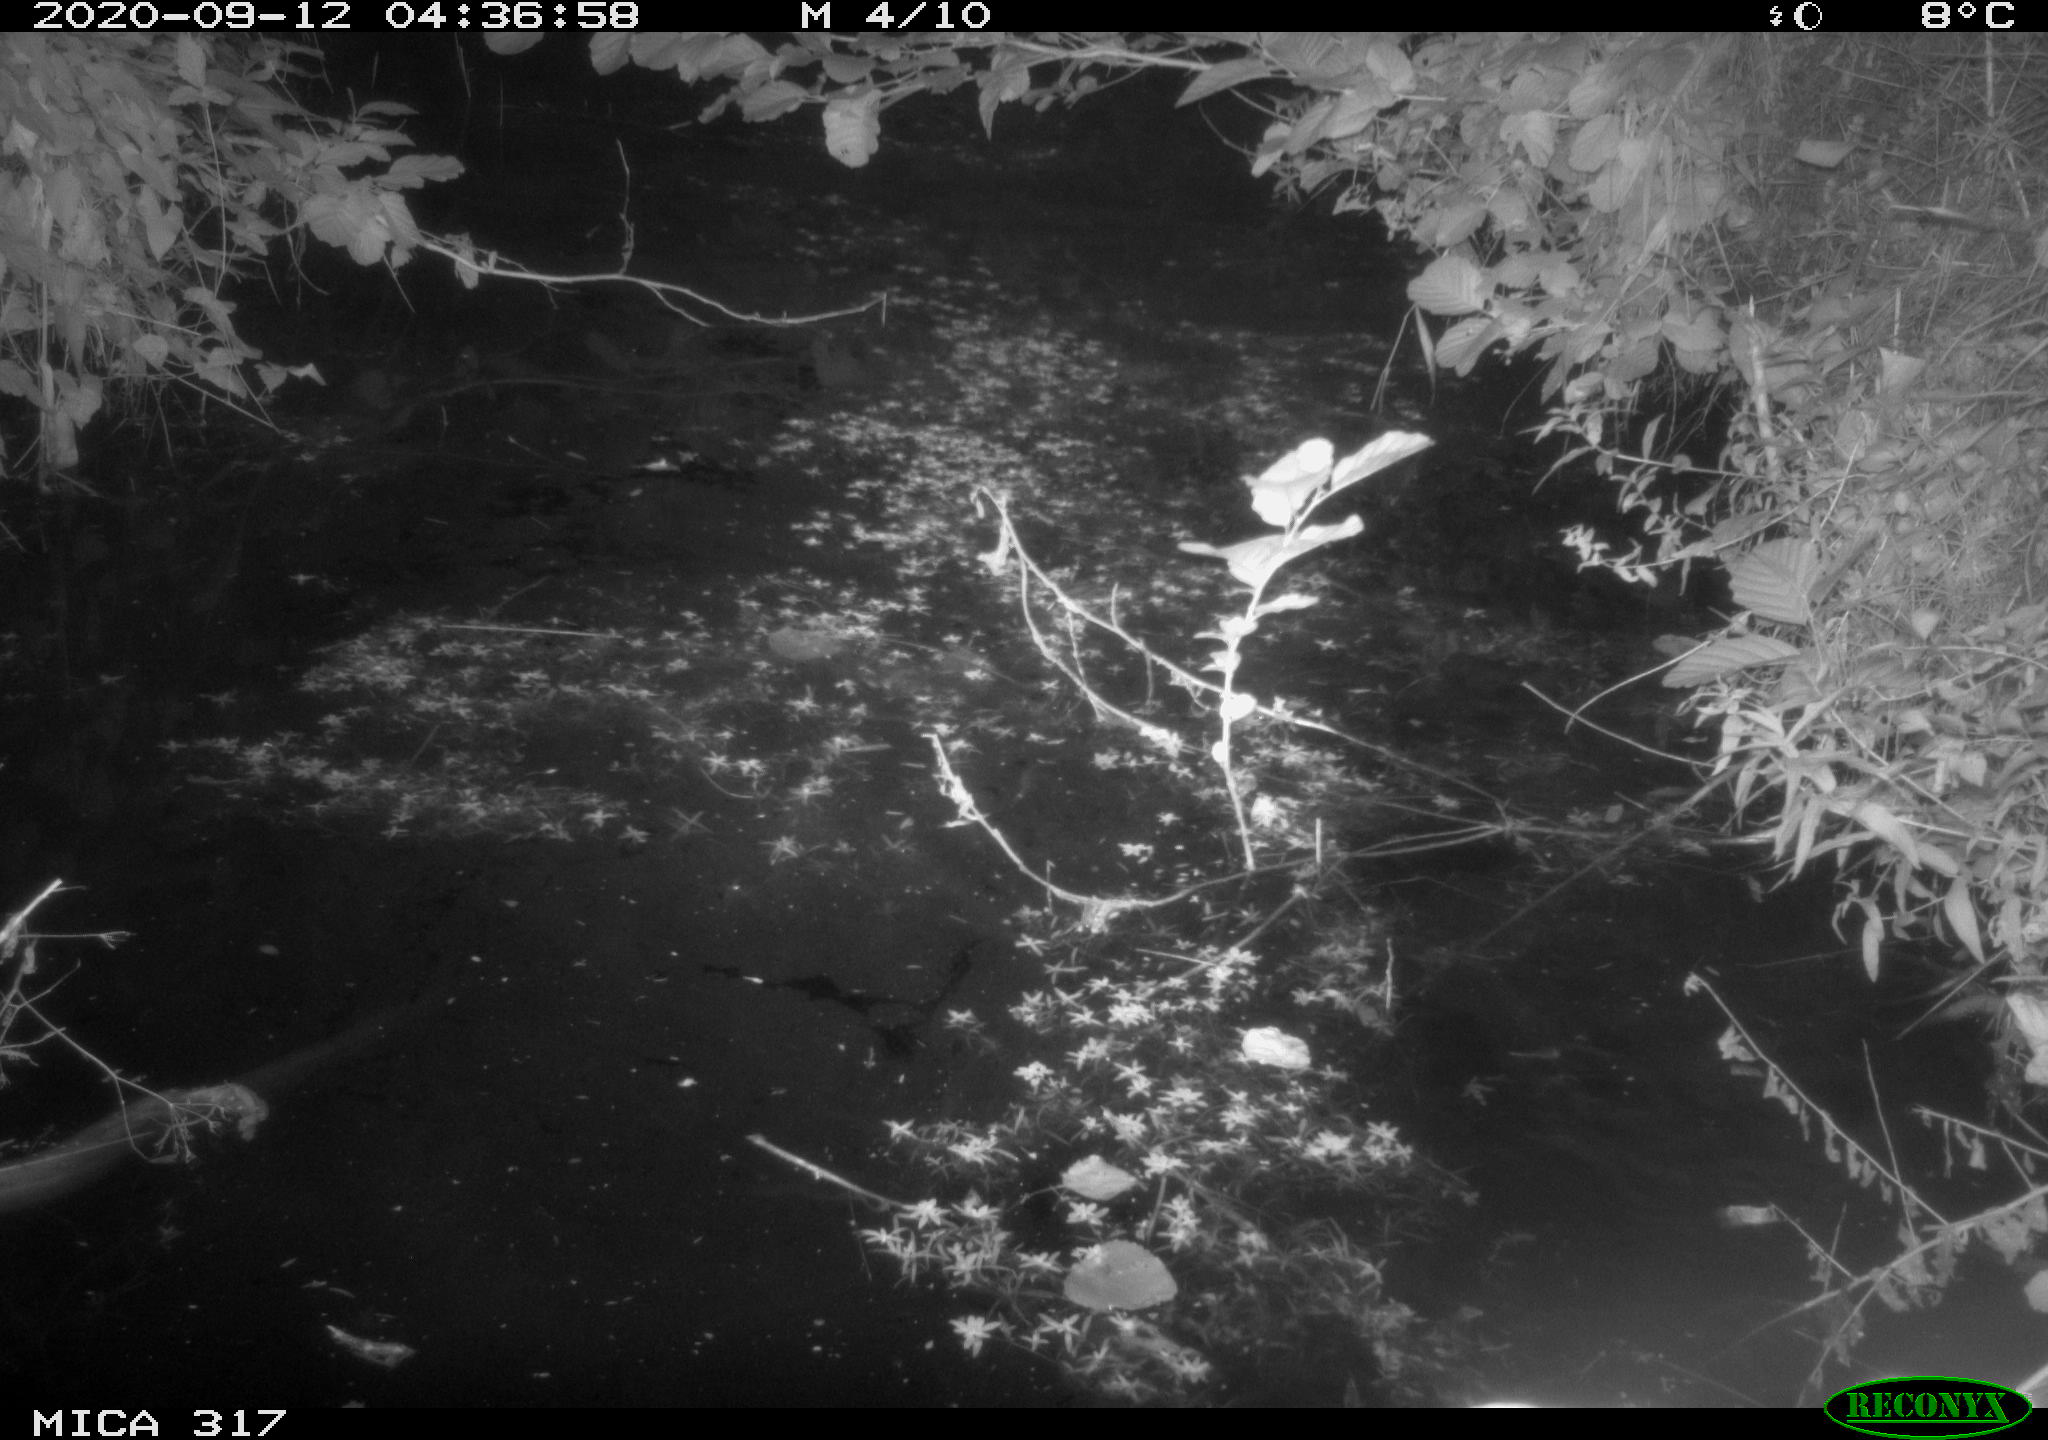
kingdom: Animalia
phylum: Chordata
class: Aves
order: Anseriformes
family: Anatidae
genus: Anas
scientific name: Anas platyrhynchos
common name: Mallard
